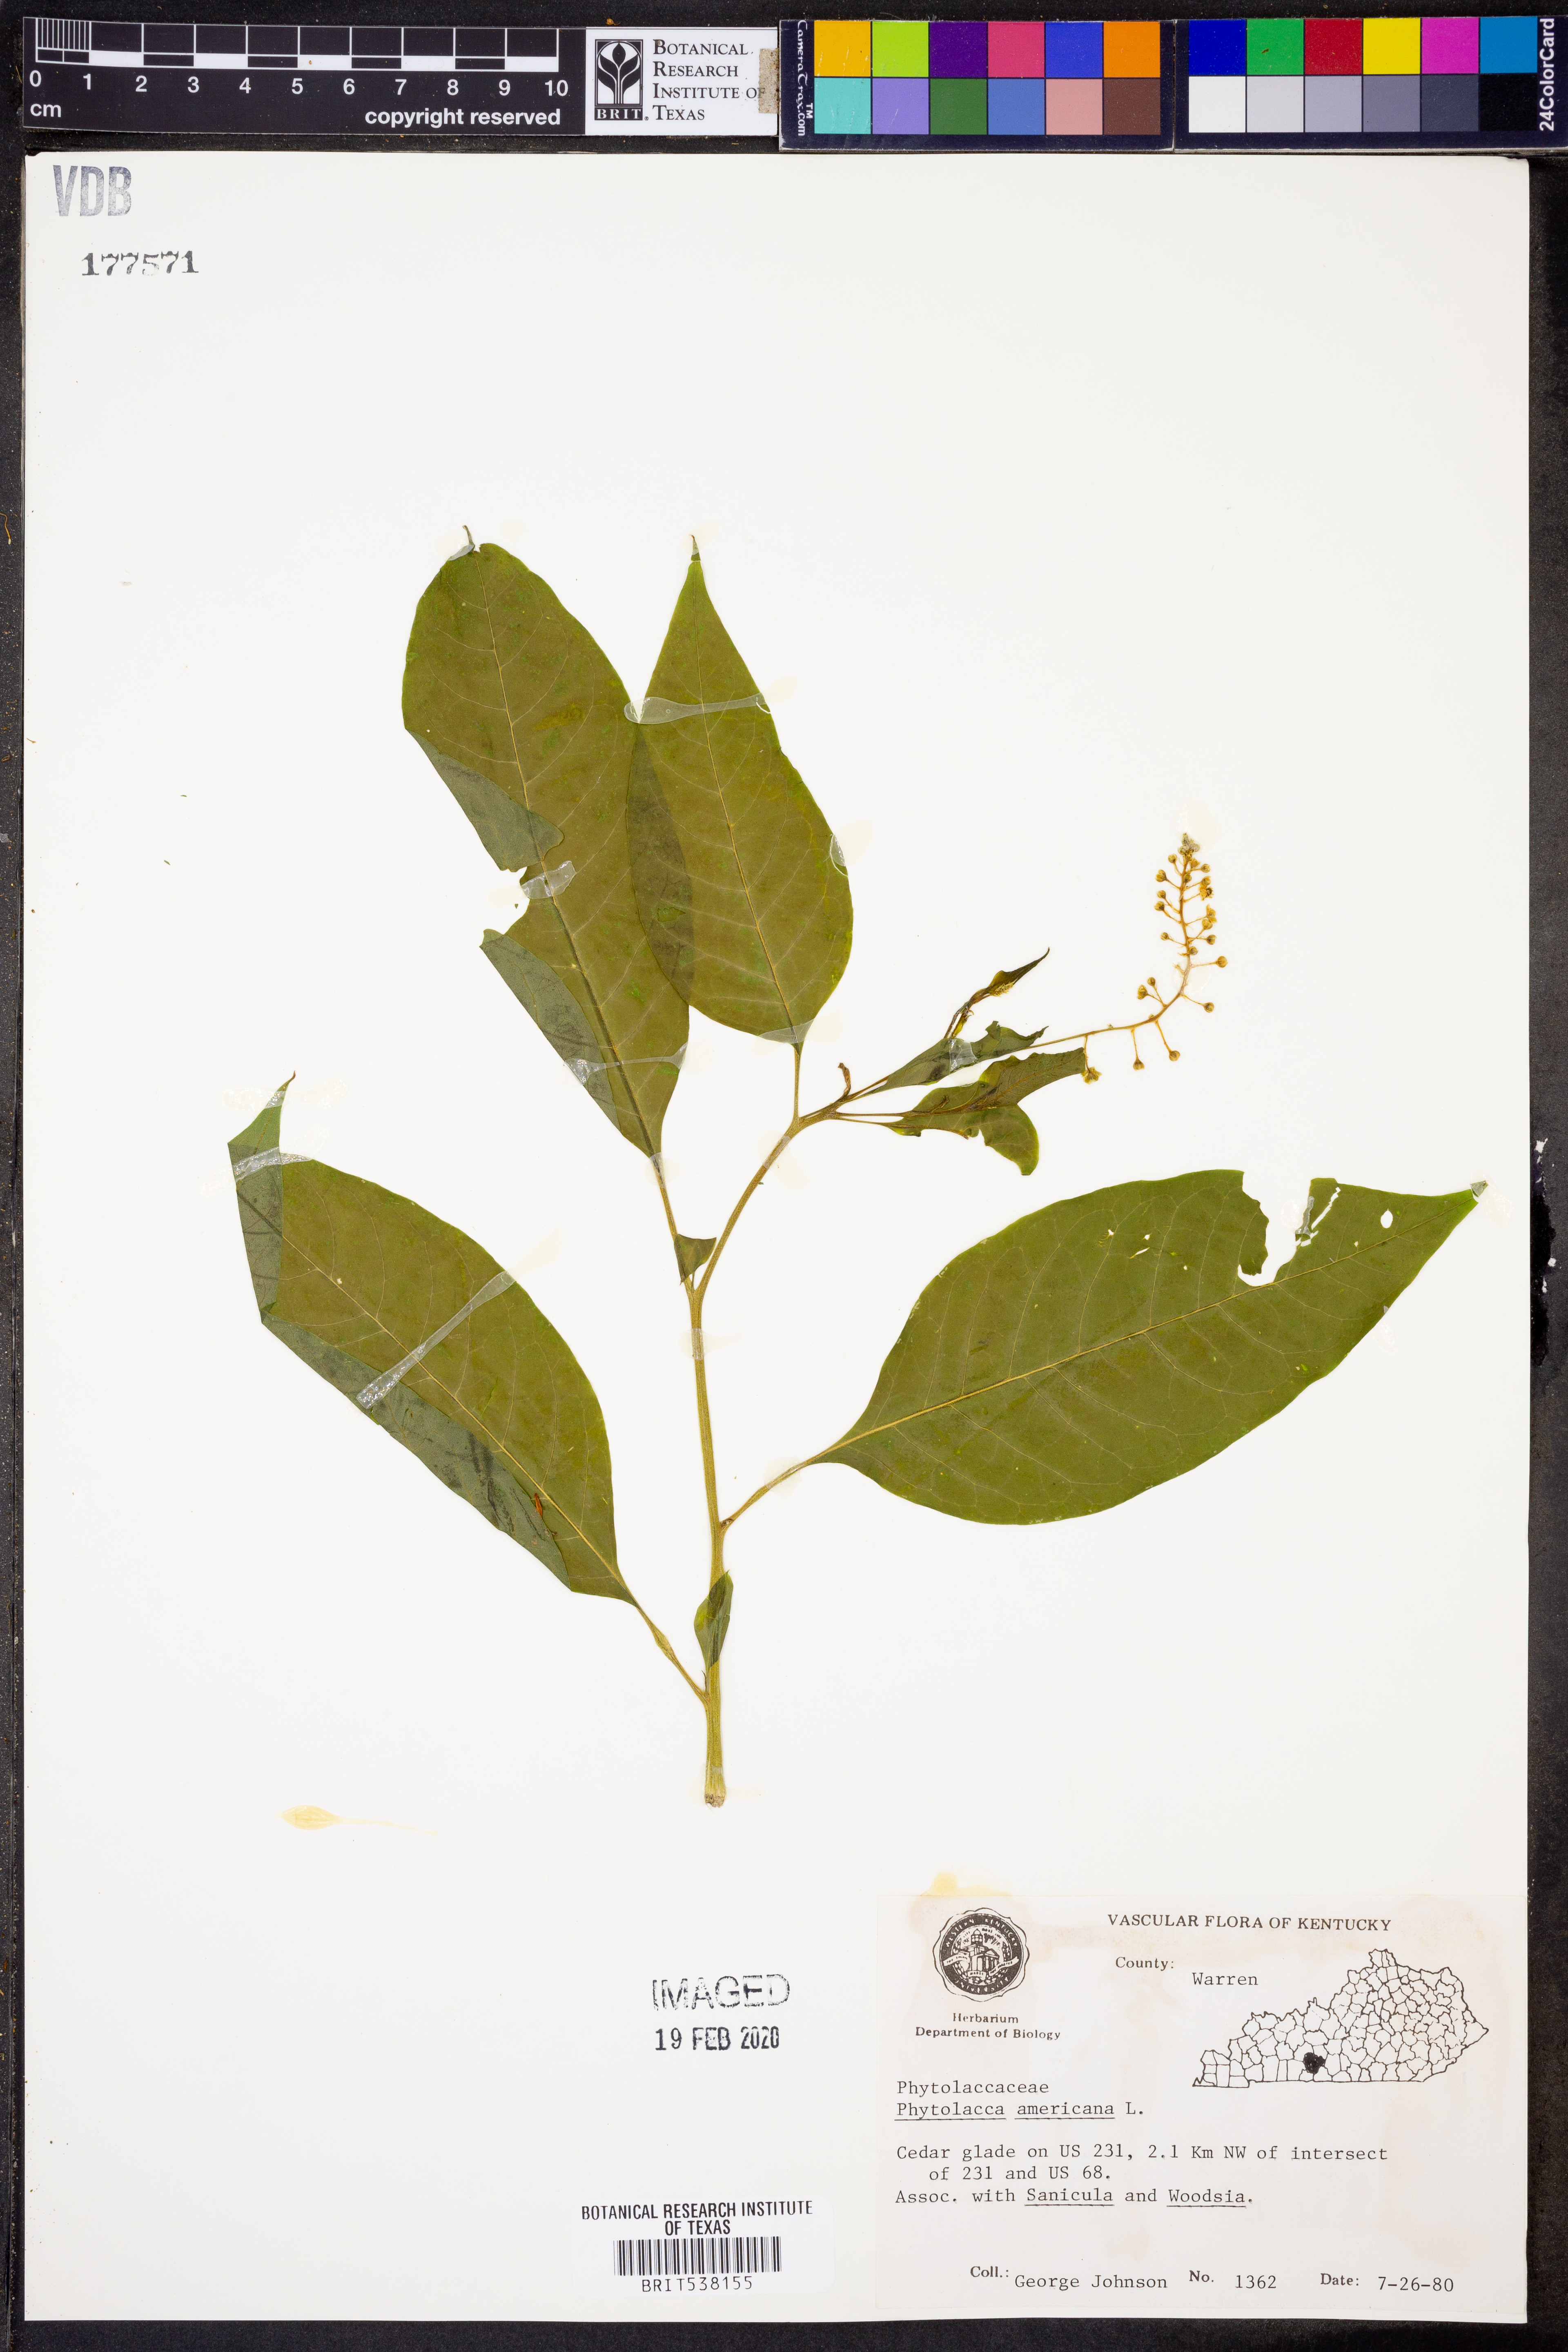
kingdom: Plantae
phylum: Tracheophyta
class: Magnoliopsida
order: Caryophyllales
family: Phytolaccaceae
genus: Phytolacca
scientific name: Phytolacca americana
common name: American pokeweed
